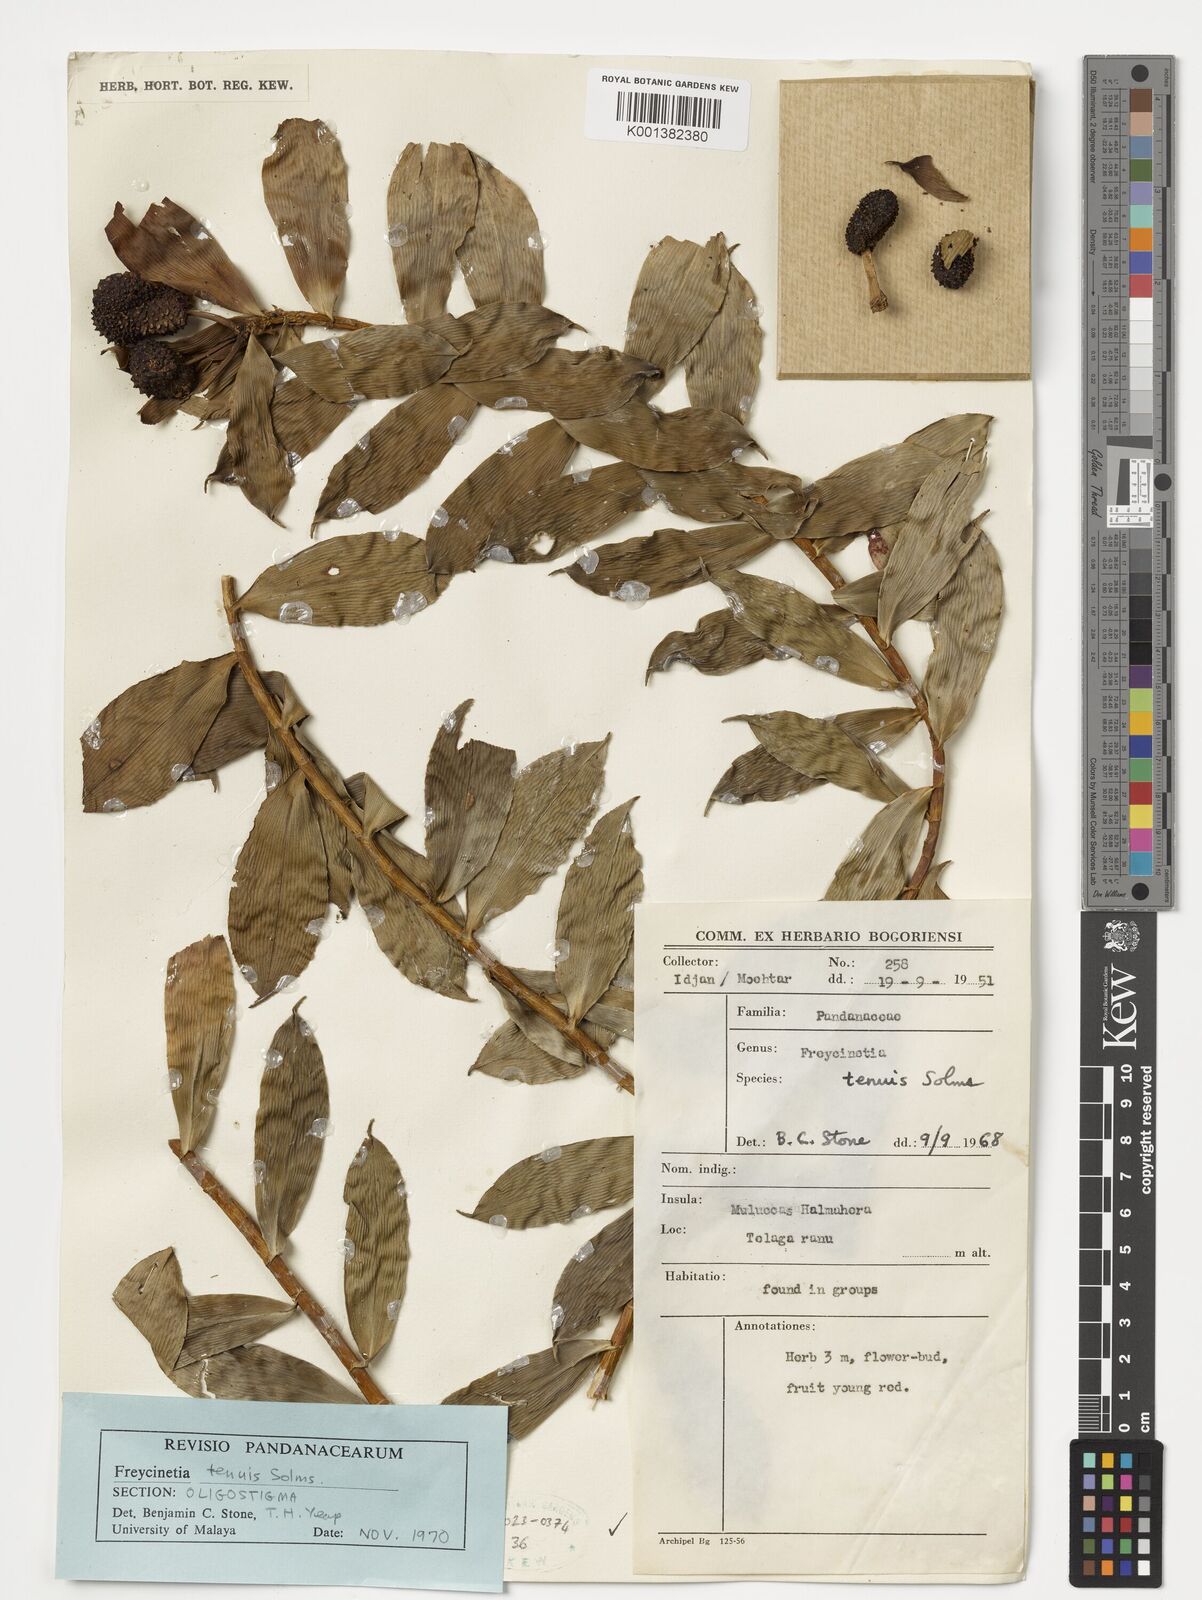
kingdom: Plantae
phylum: Tracheophyta
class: Liliopsida
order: Pandanales
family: Pandanaceae
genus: Freycinetia
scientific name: Freycinetia acutifolia
